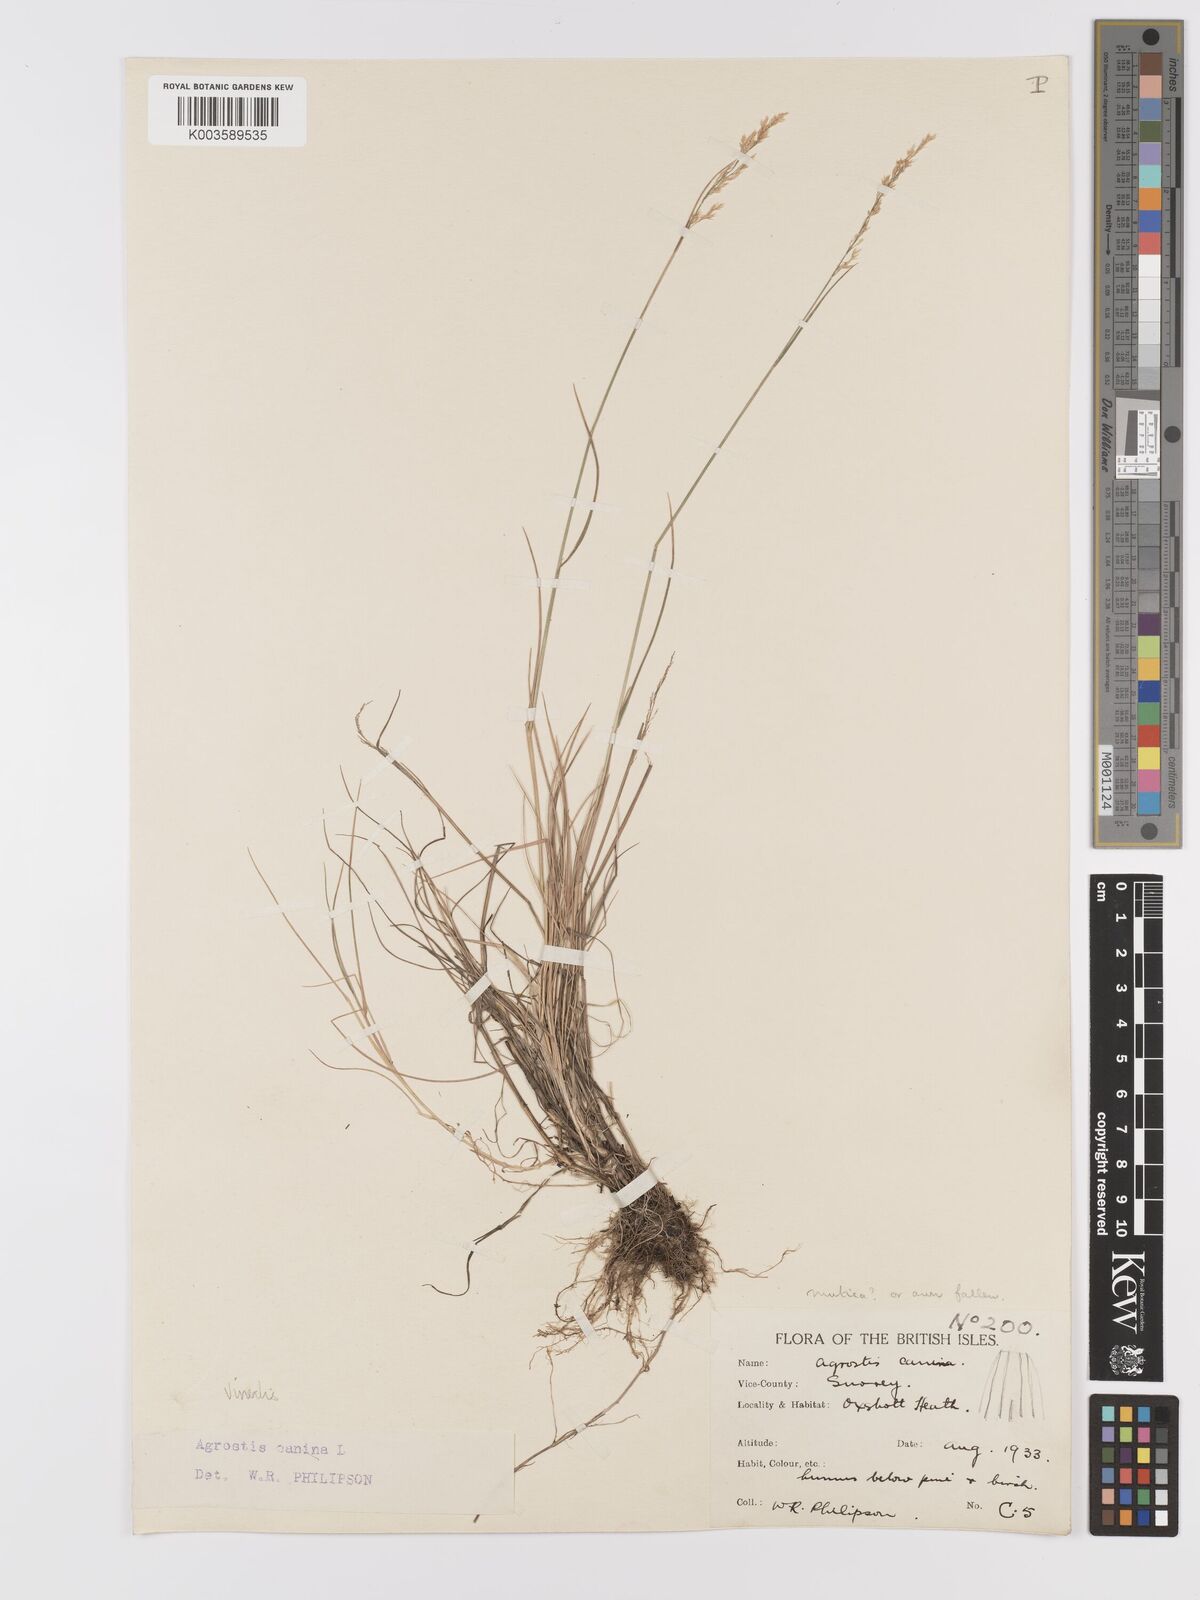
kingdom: Plantae
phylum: Tracheophyta
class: Liliopsida
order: Poales
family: Poaceae
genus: Agrostis
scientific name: Agrostis
